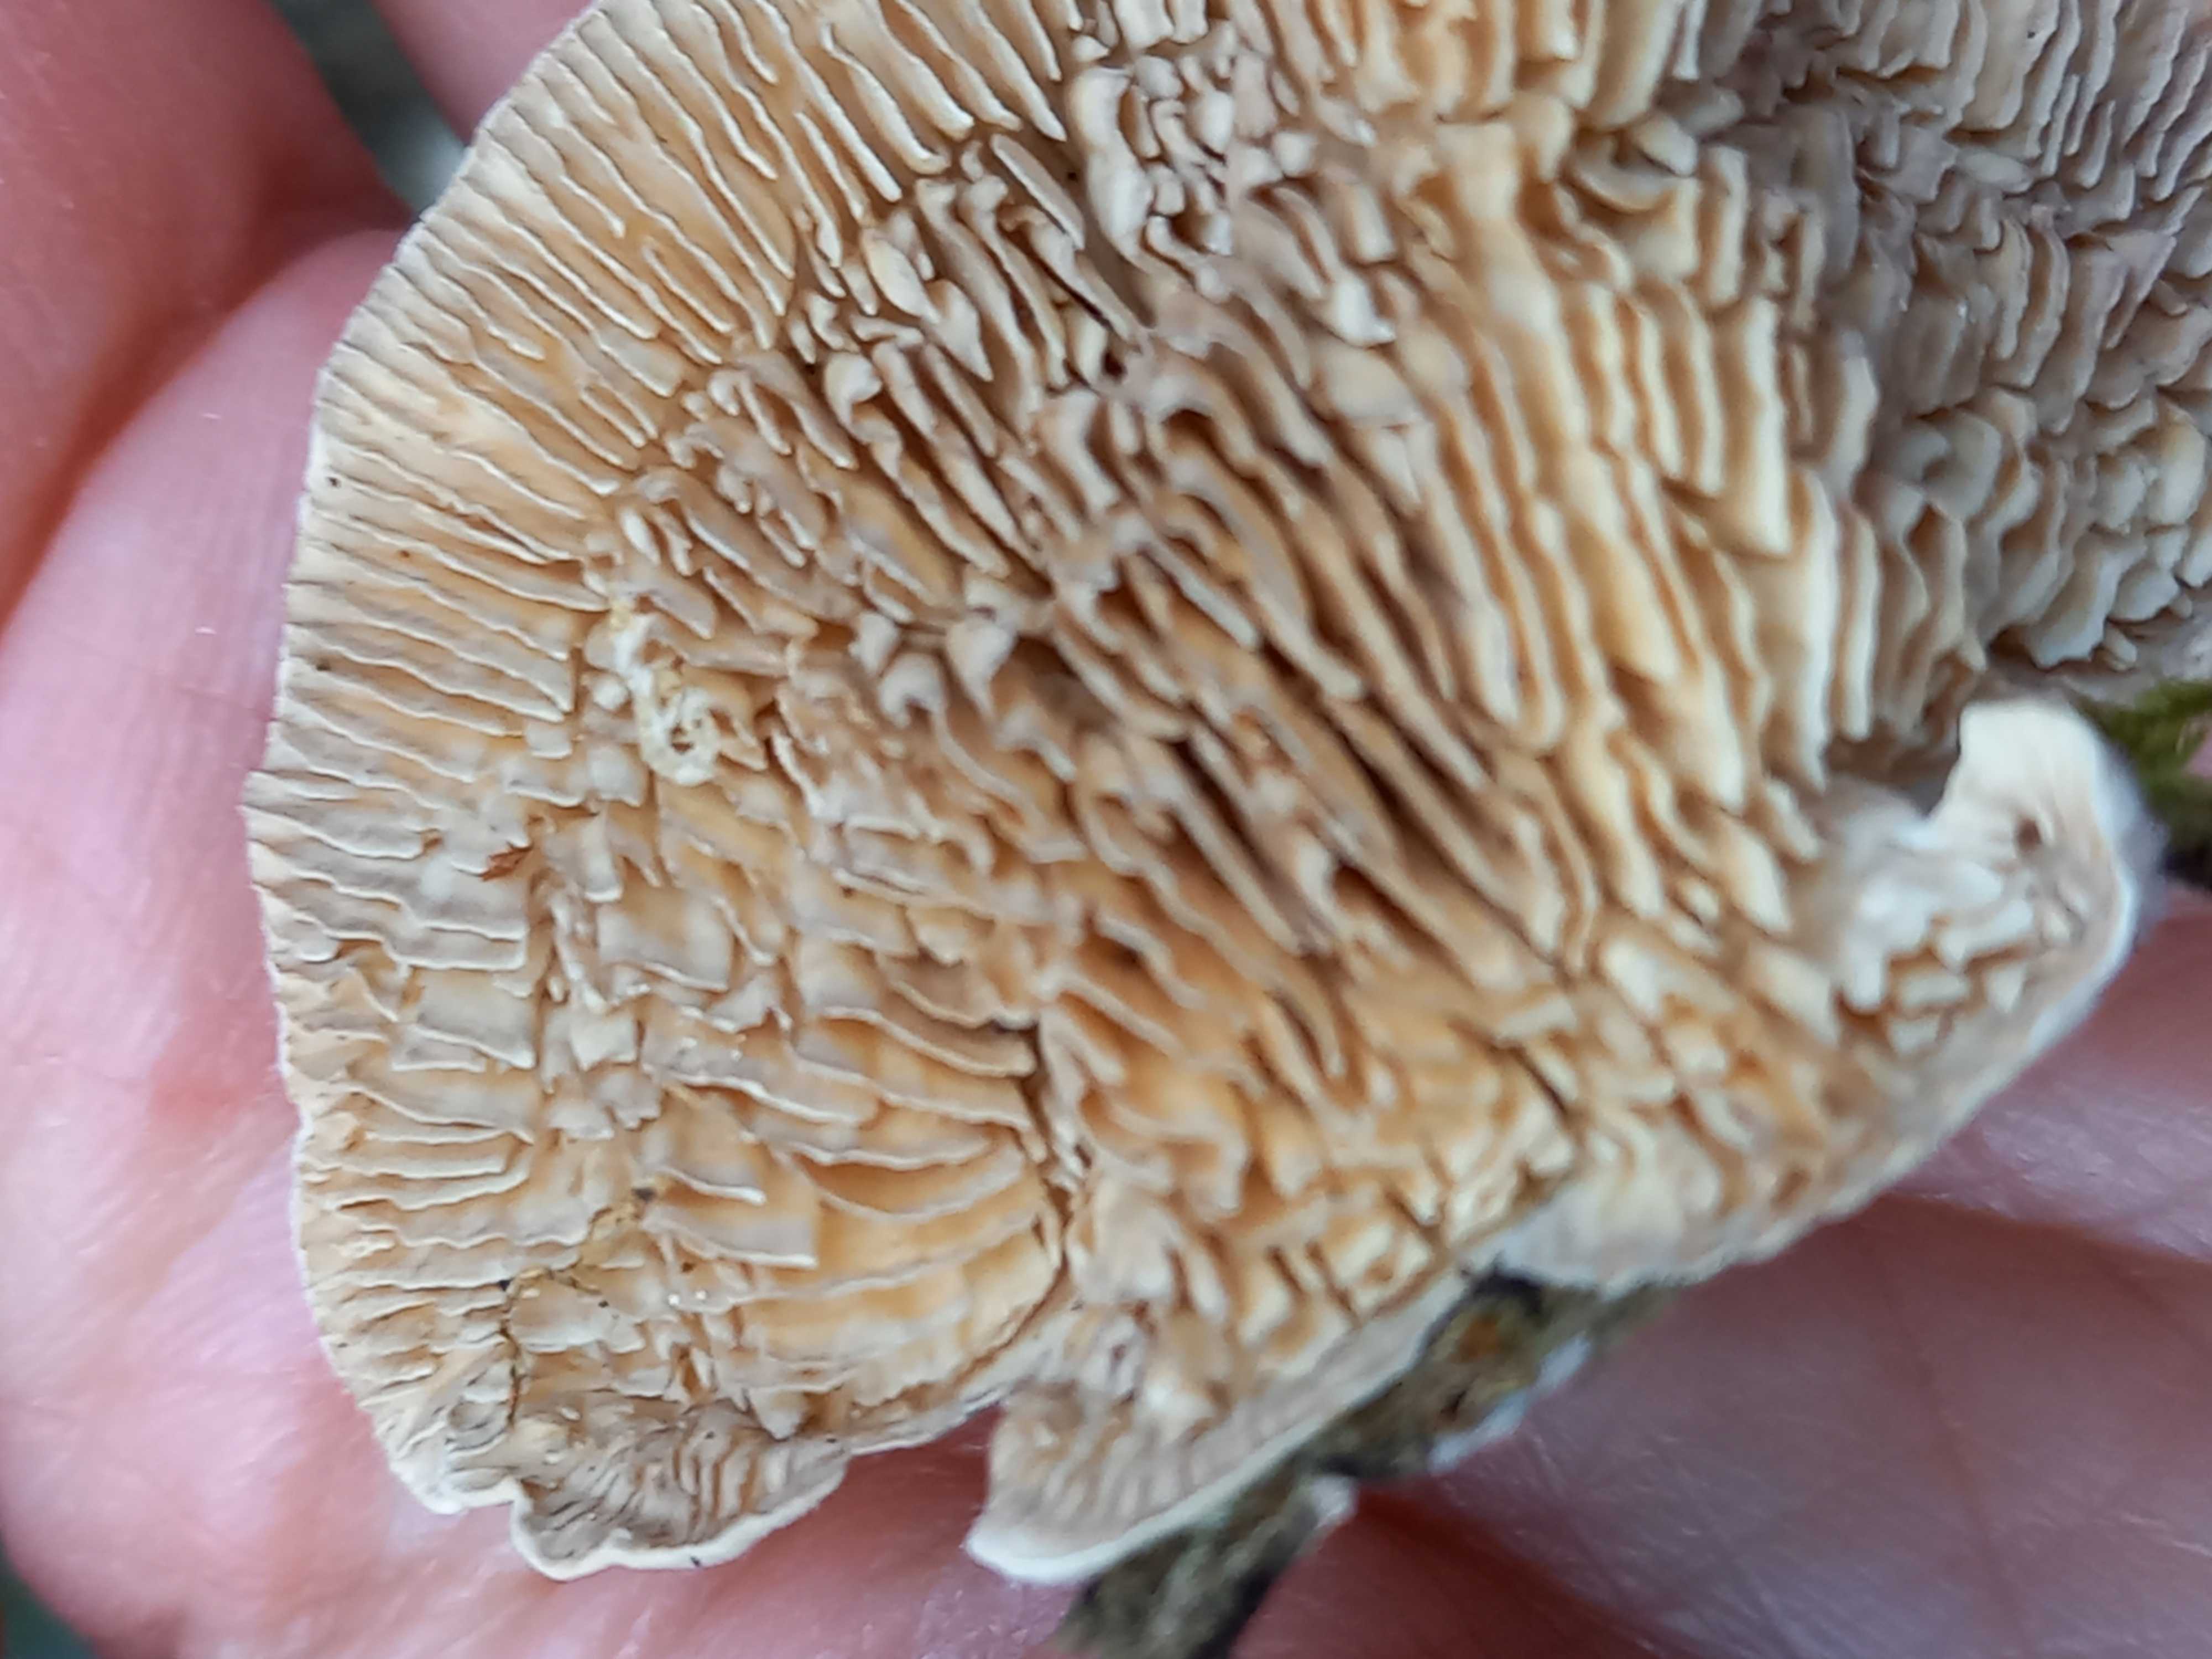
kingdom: Fungi
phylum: Basidiomycota
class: Agaricomycetes
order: Polyporales
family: Polyporaceae
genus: Lenzites
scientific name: Lenzites betulinus
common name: birke-læderporesvamp
